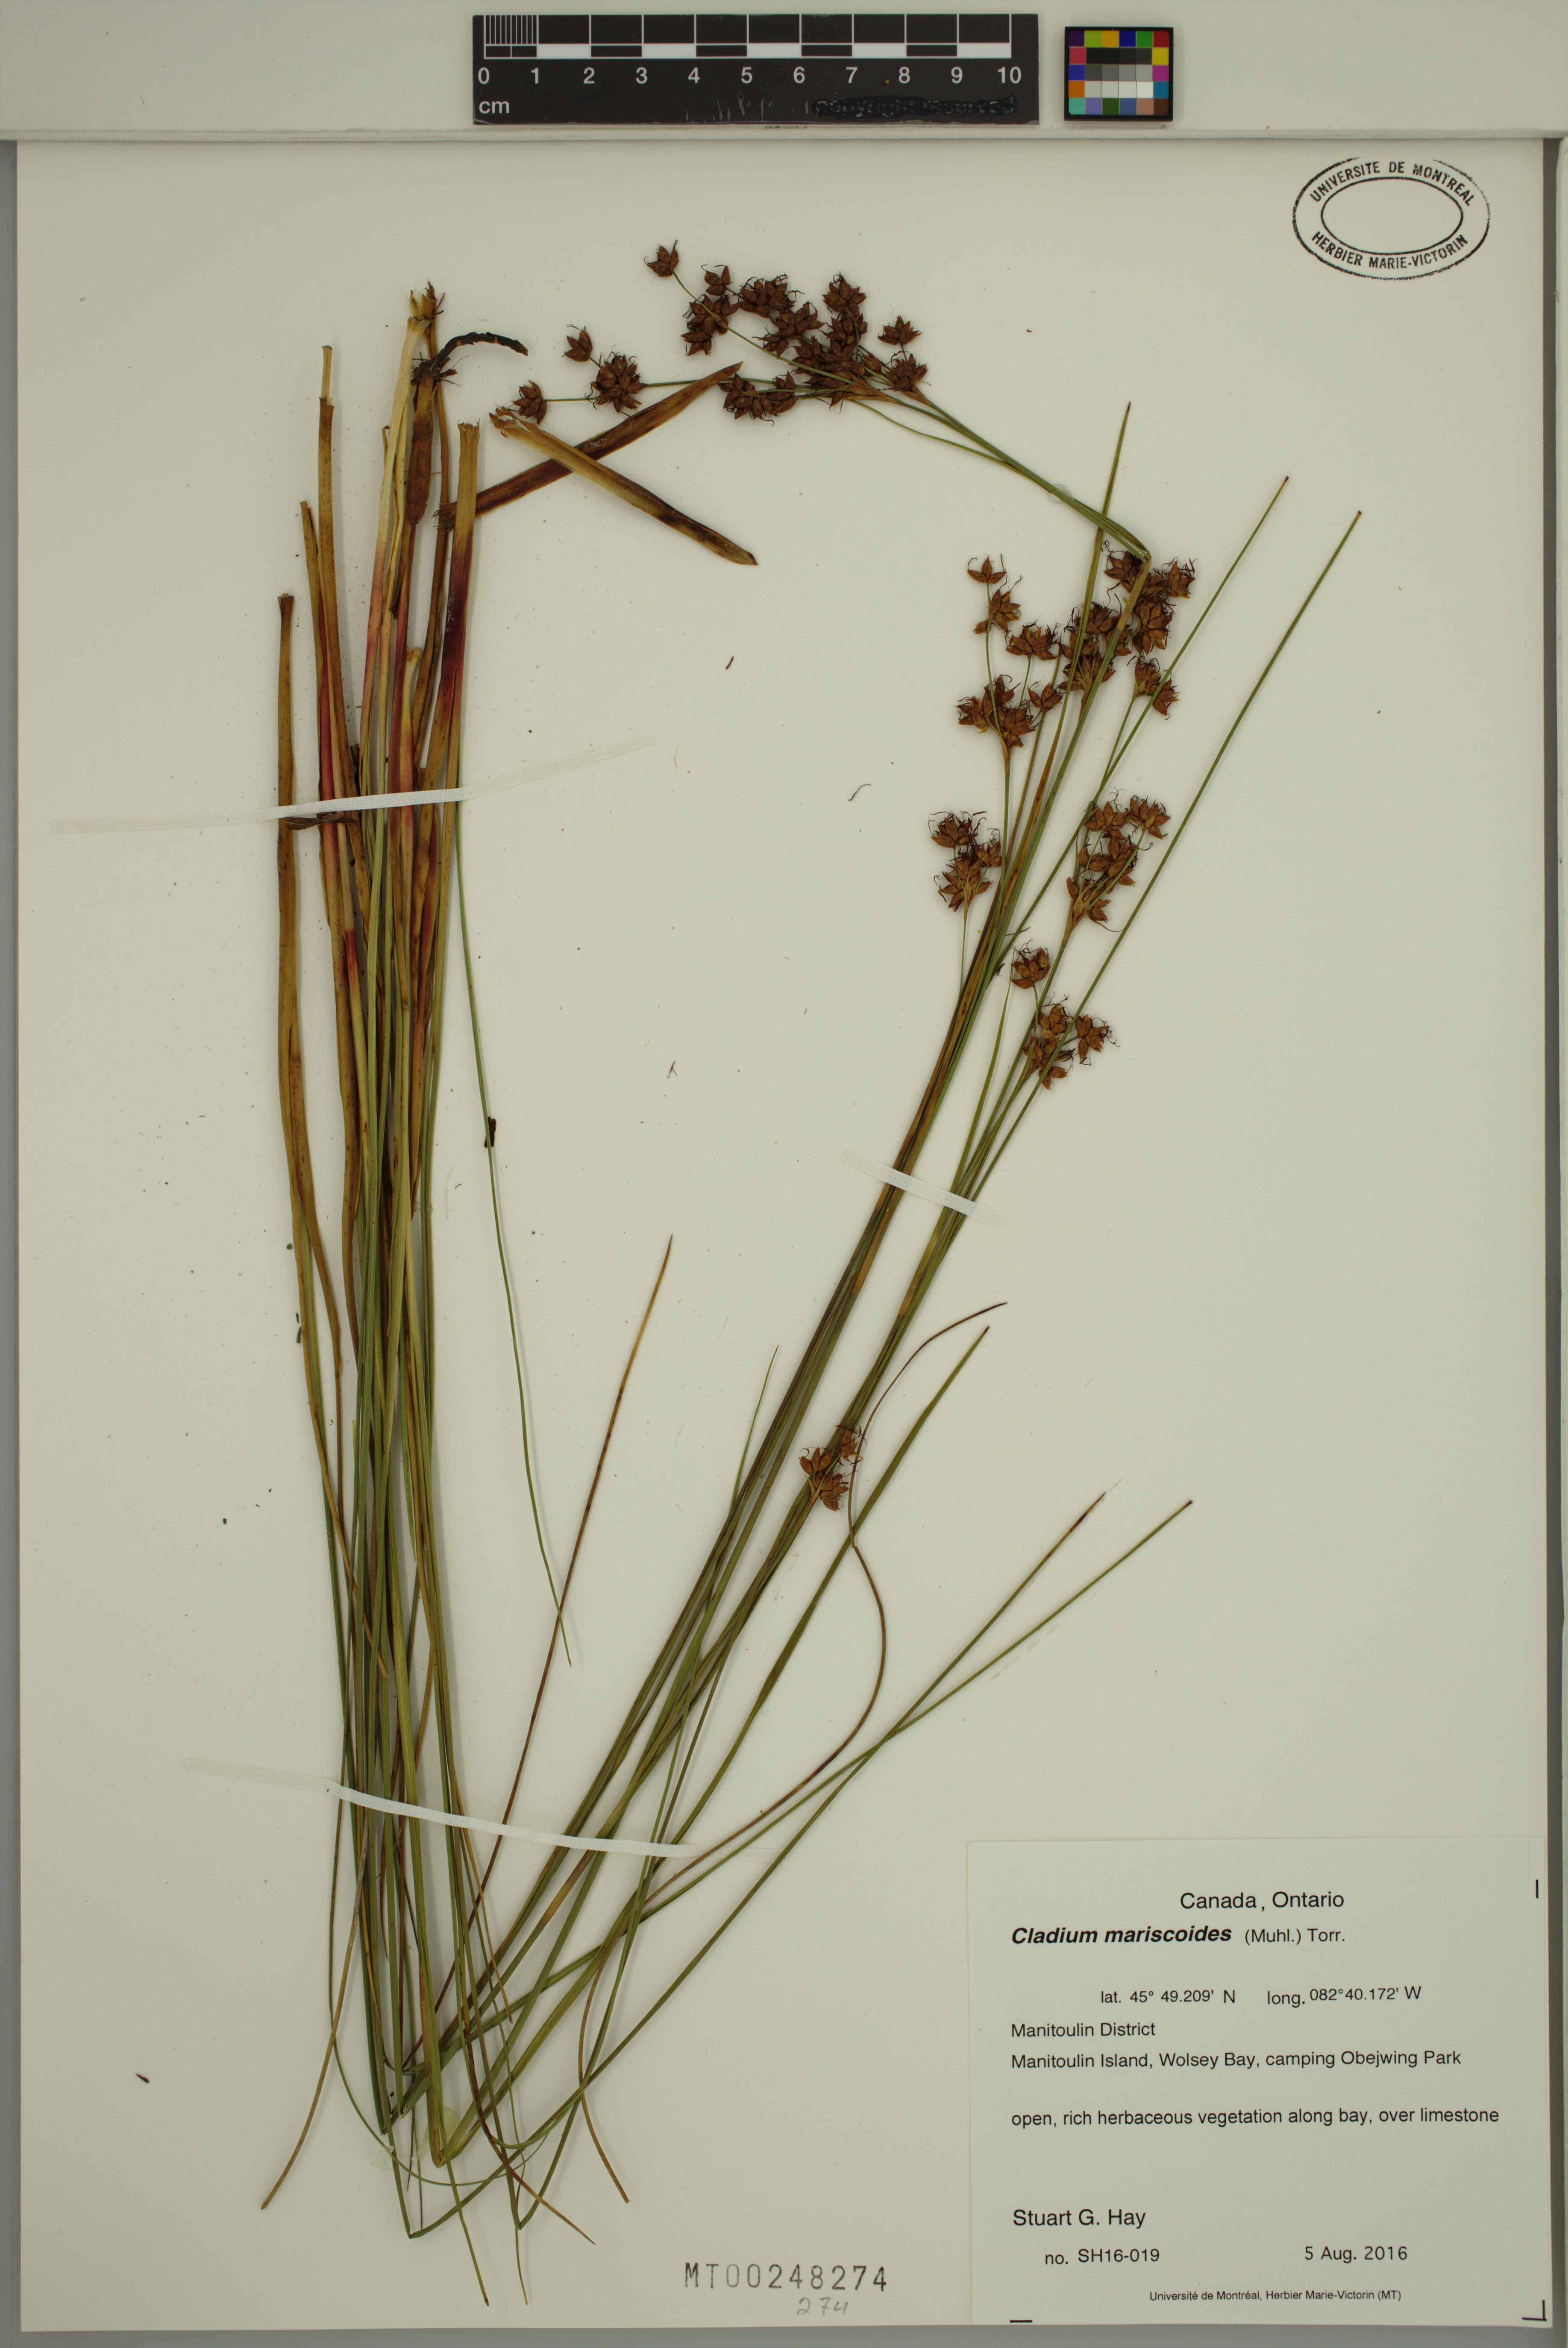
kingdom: Plantae
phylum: Tracheophyta
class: Liliopsida
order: Poales
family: Cyperaceae
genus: Cladium
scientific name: Cladium mariscoides
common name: Smooth sawgrass
